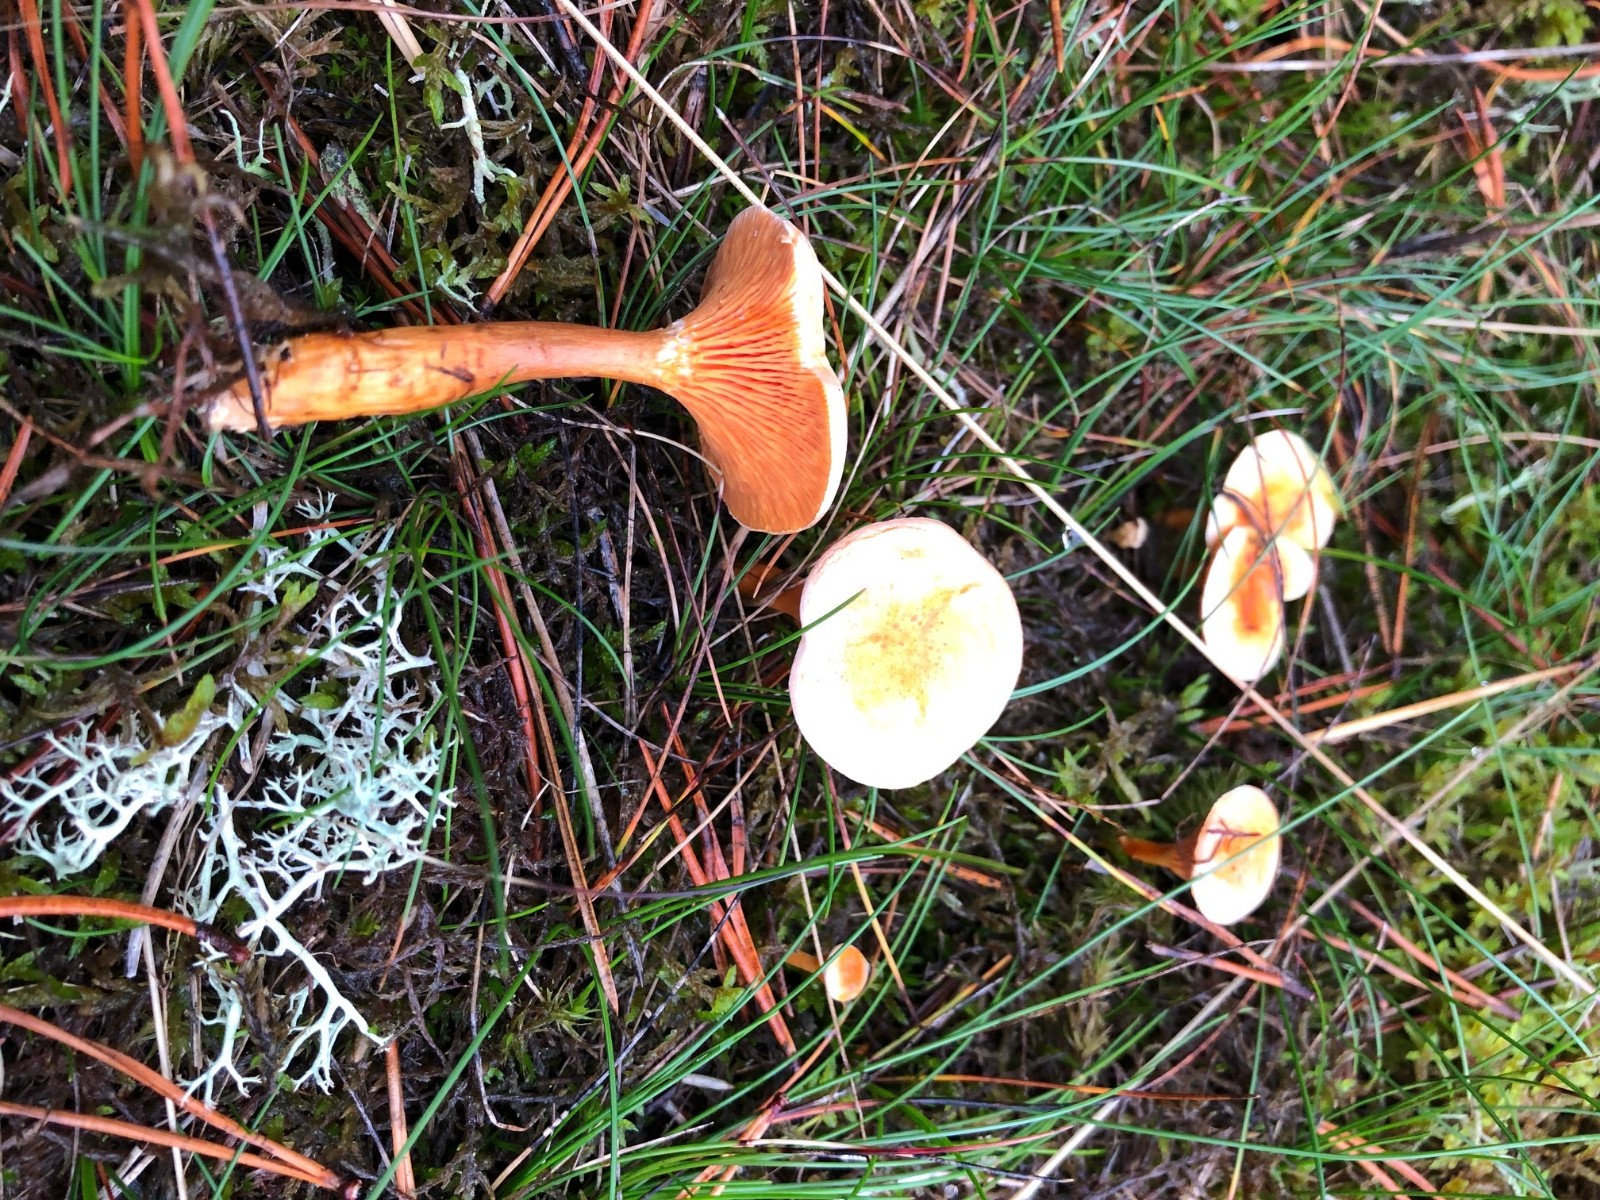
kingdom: Fungi
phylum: Basidiomycota
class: Agaricomycetes
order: Boletales
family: Hygrophoropsidaceae
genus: Hygrophoropsis
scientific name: Hygrophoropsis aurantiaca
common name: almindelig orangekantarel
